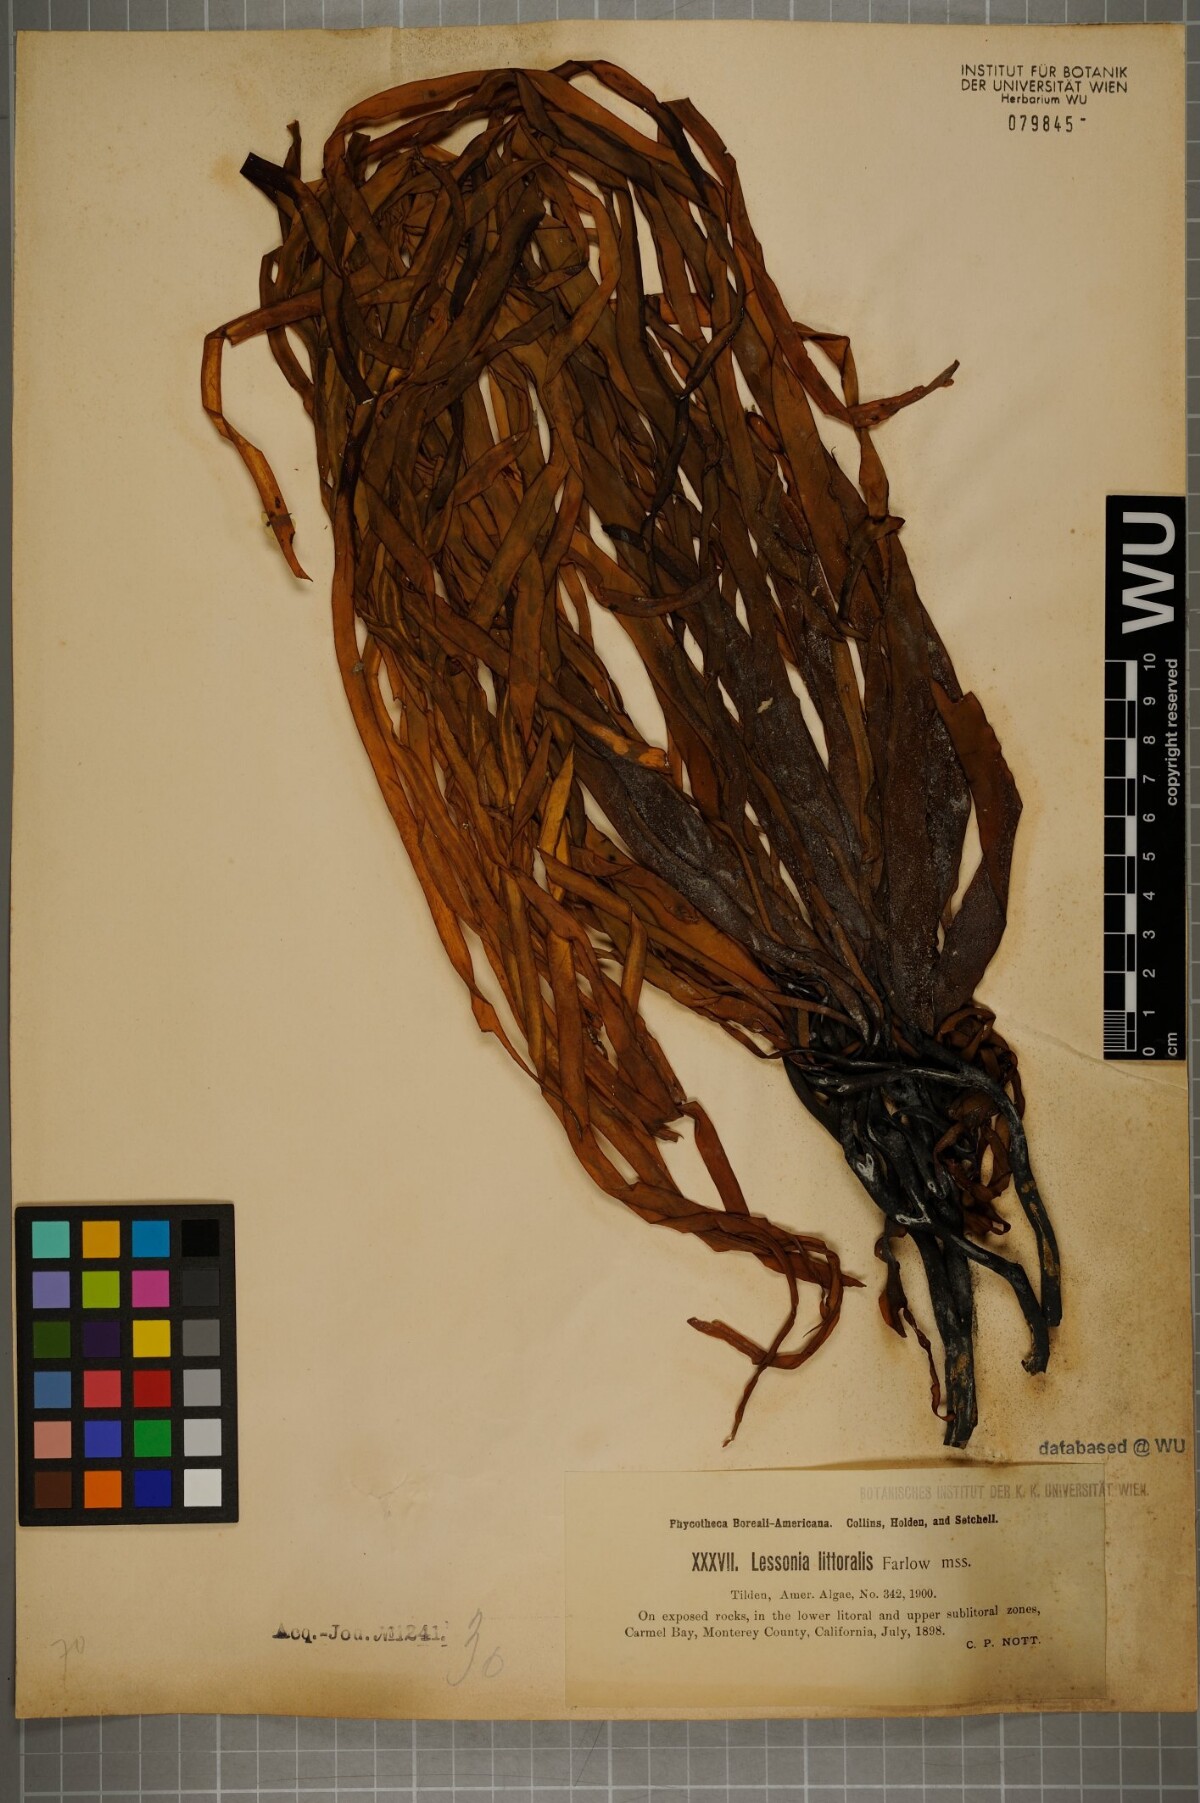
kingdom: Chromista
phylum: Ochrophyta
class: Phaeophyceae
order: Laminariales
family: Alariaceae
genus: Lessoniopsis
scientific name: Lessoniopsis littoralis
